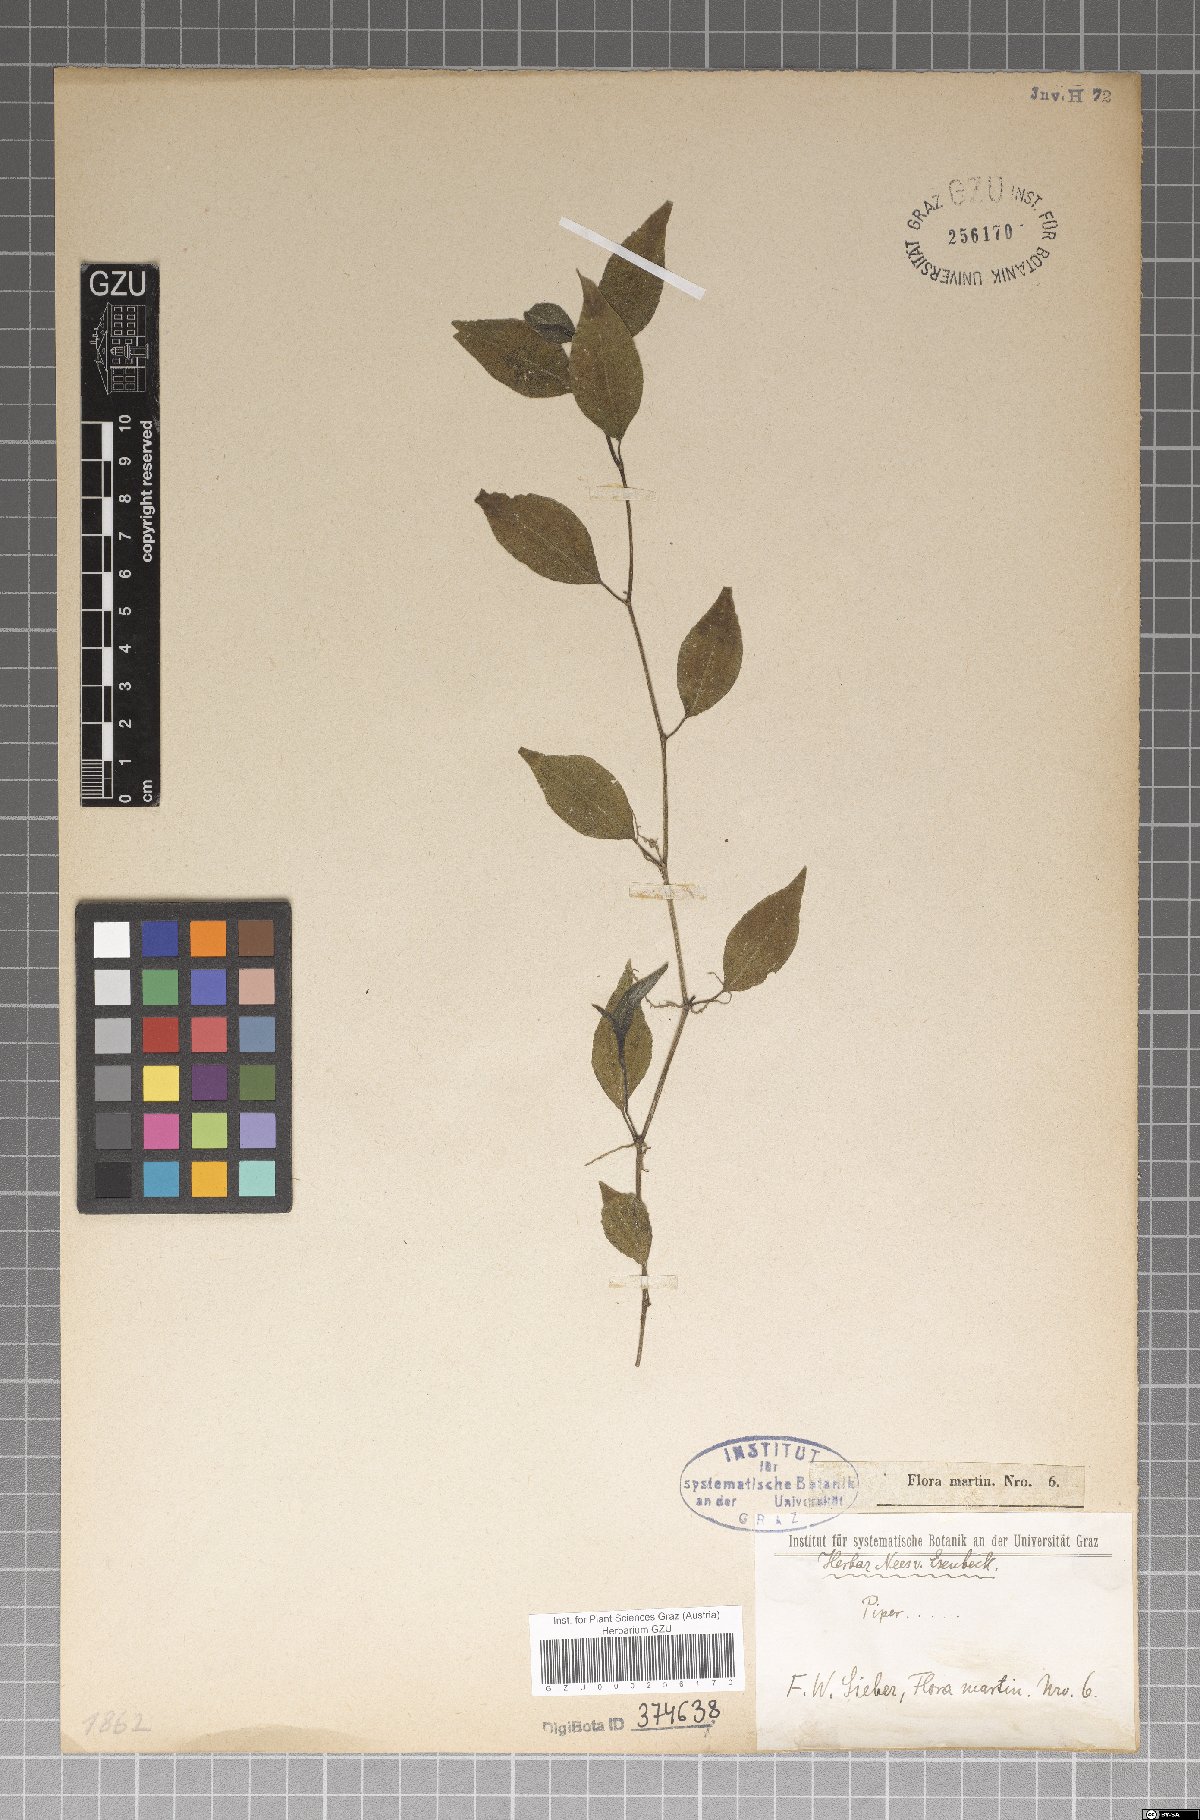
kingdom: Plantae
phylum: Tracheophyta
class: Magnoliopsida
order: Piperales
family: Piperaceae
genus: Piper
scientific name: Piper
